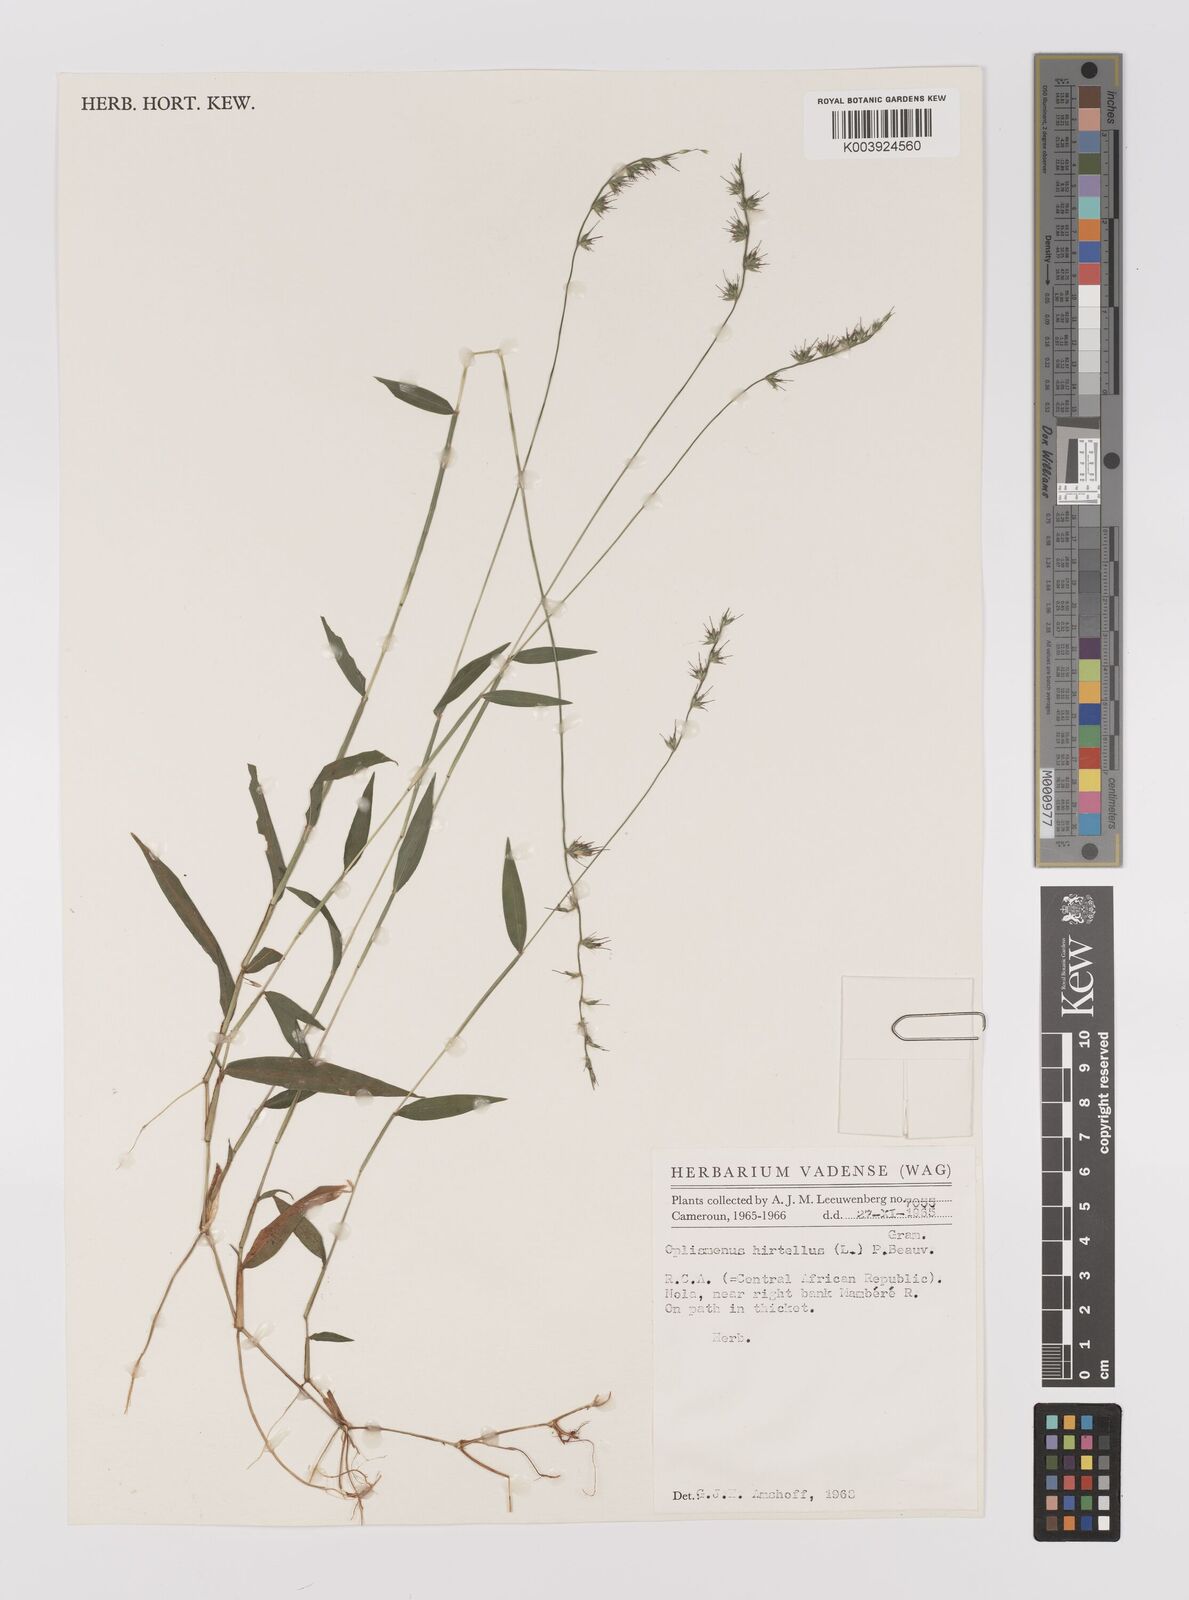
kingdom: Plantae
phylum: Tracheophyta
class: Liliopsida
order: Poales
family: Poaceae
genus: Oplismenus
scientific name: Oplismenus hirtellus
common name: Basketgrass
